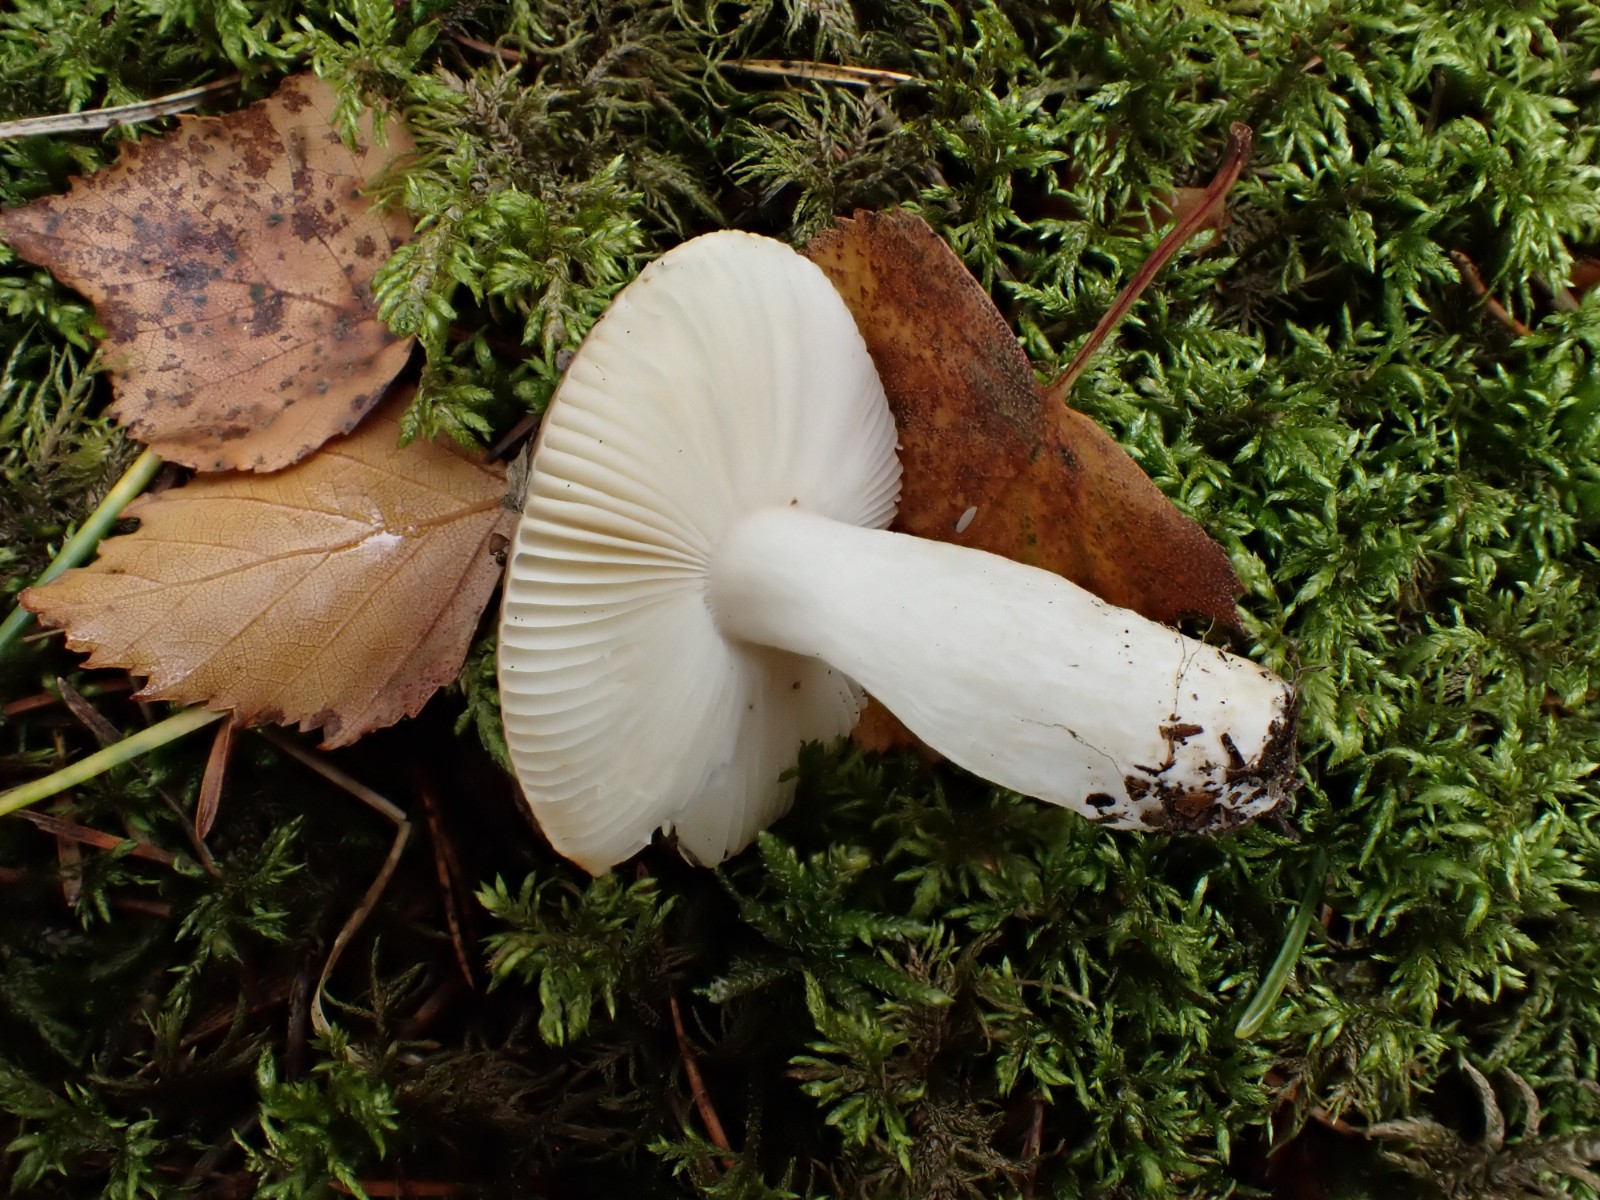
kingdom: Fungi
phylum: Basidiomycota
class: Agaricomycetes
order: Russulales
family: Russulaceae
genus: Russula
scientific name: Russula versicolor
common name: foranderlig skørhat
